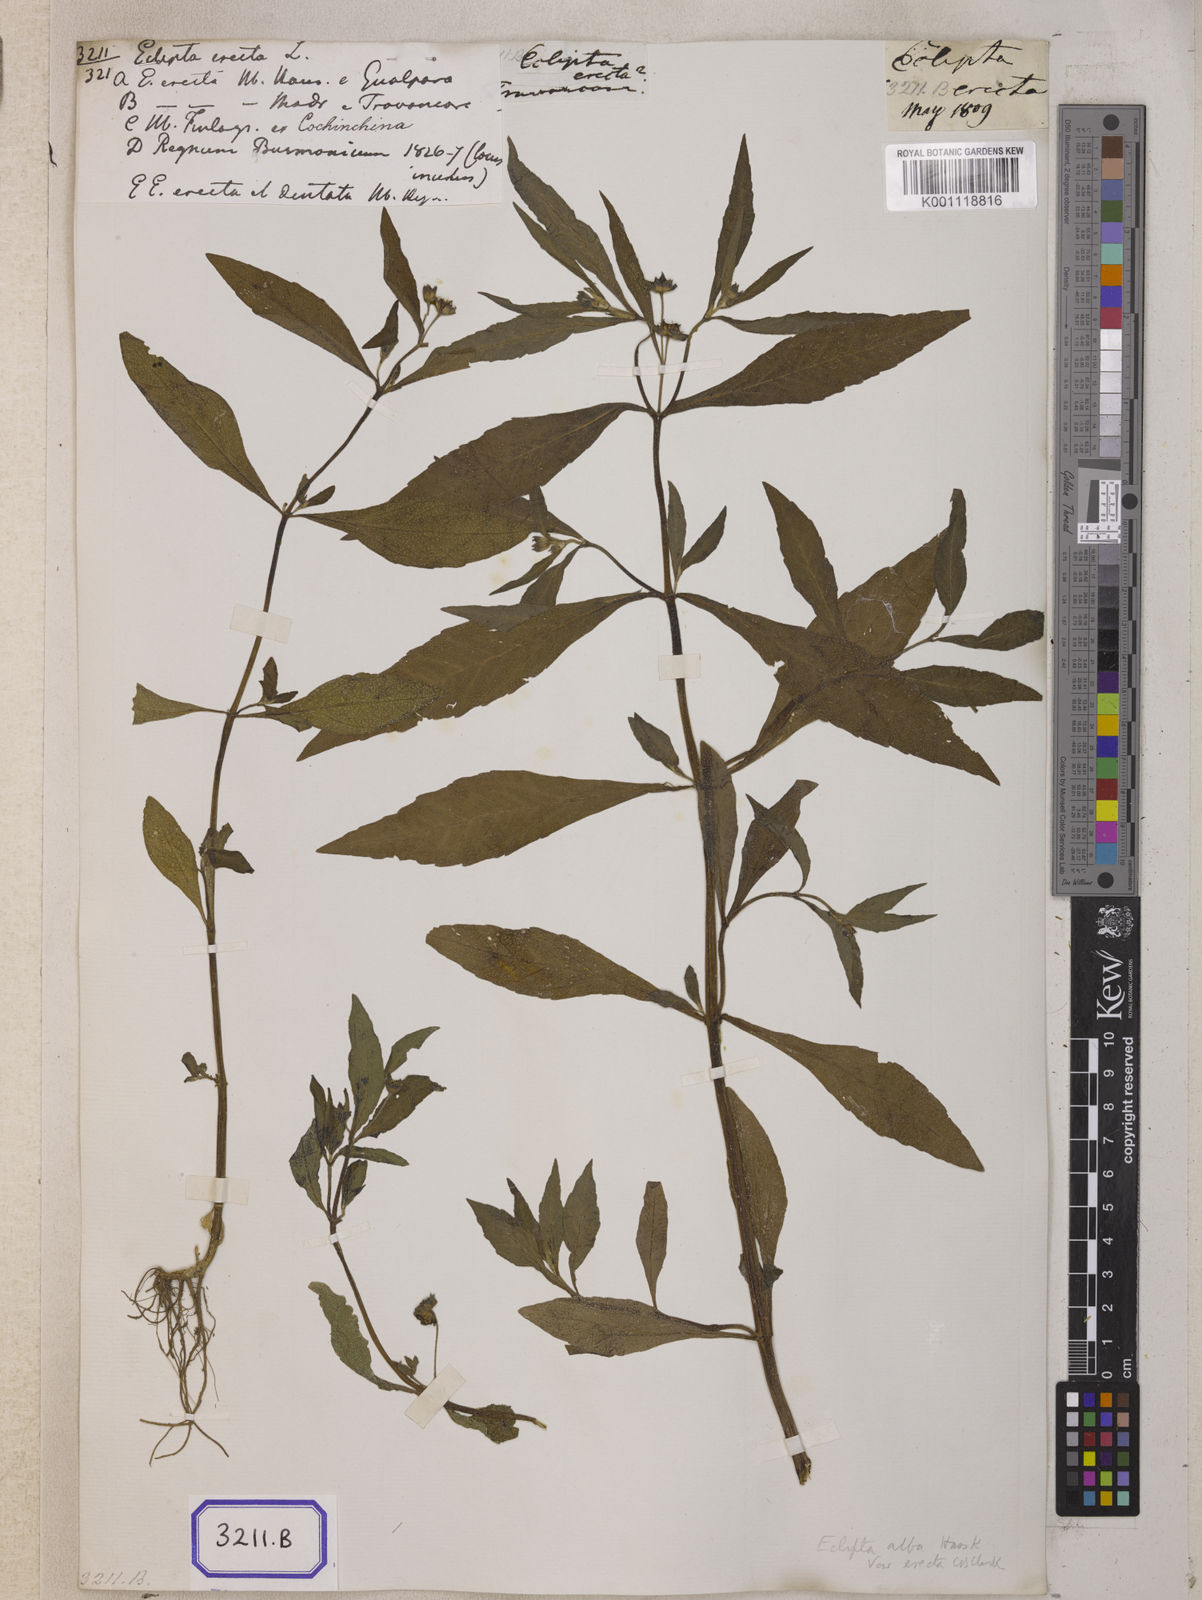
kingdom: Plantae
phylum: Tracheophyta
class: Magnoliopsida
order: Asterales
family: Asteraceae
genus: Eclipta
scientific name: Eclipta alba
